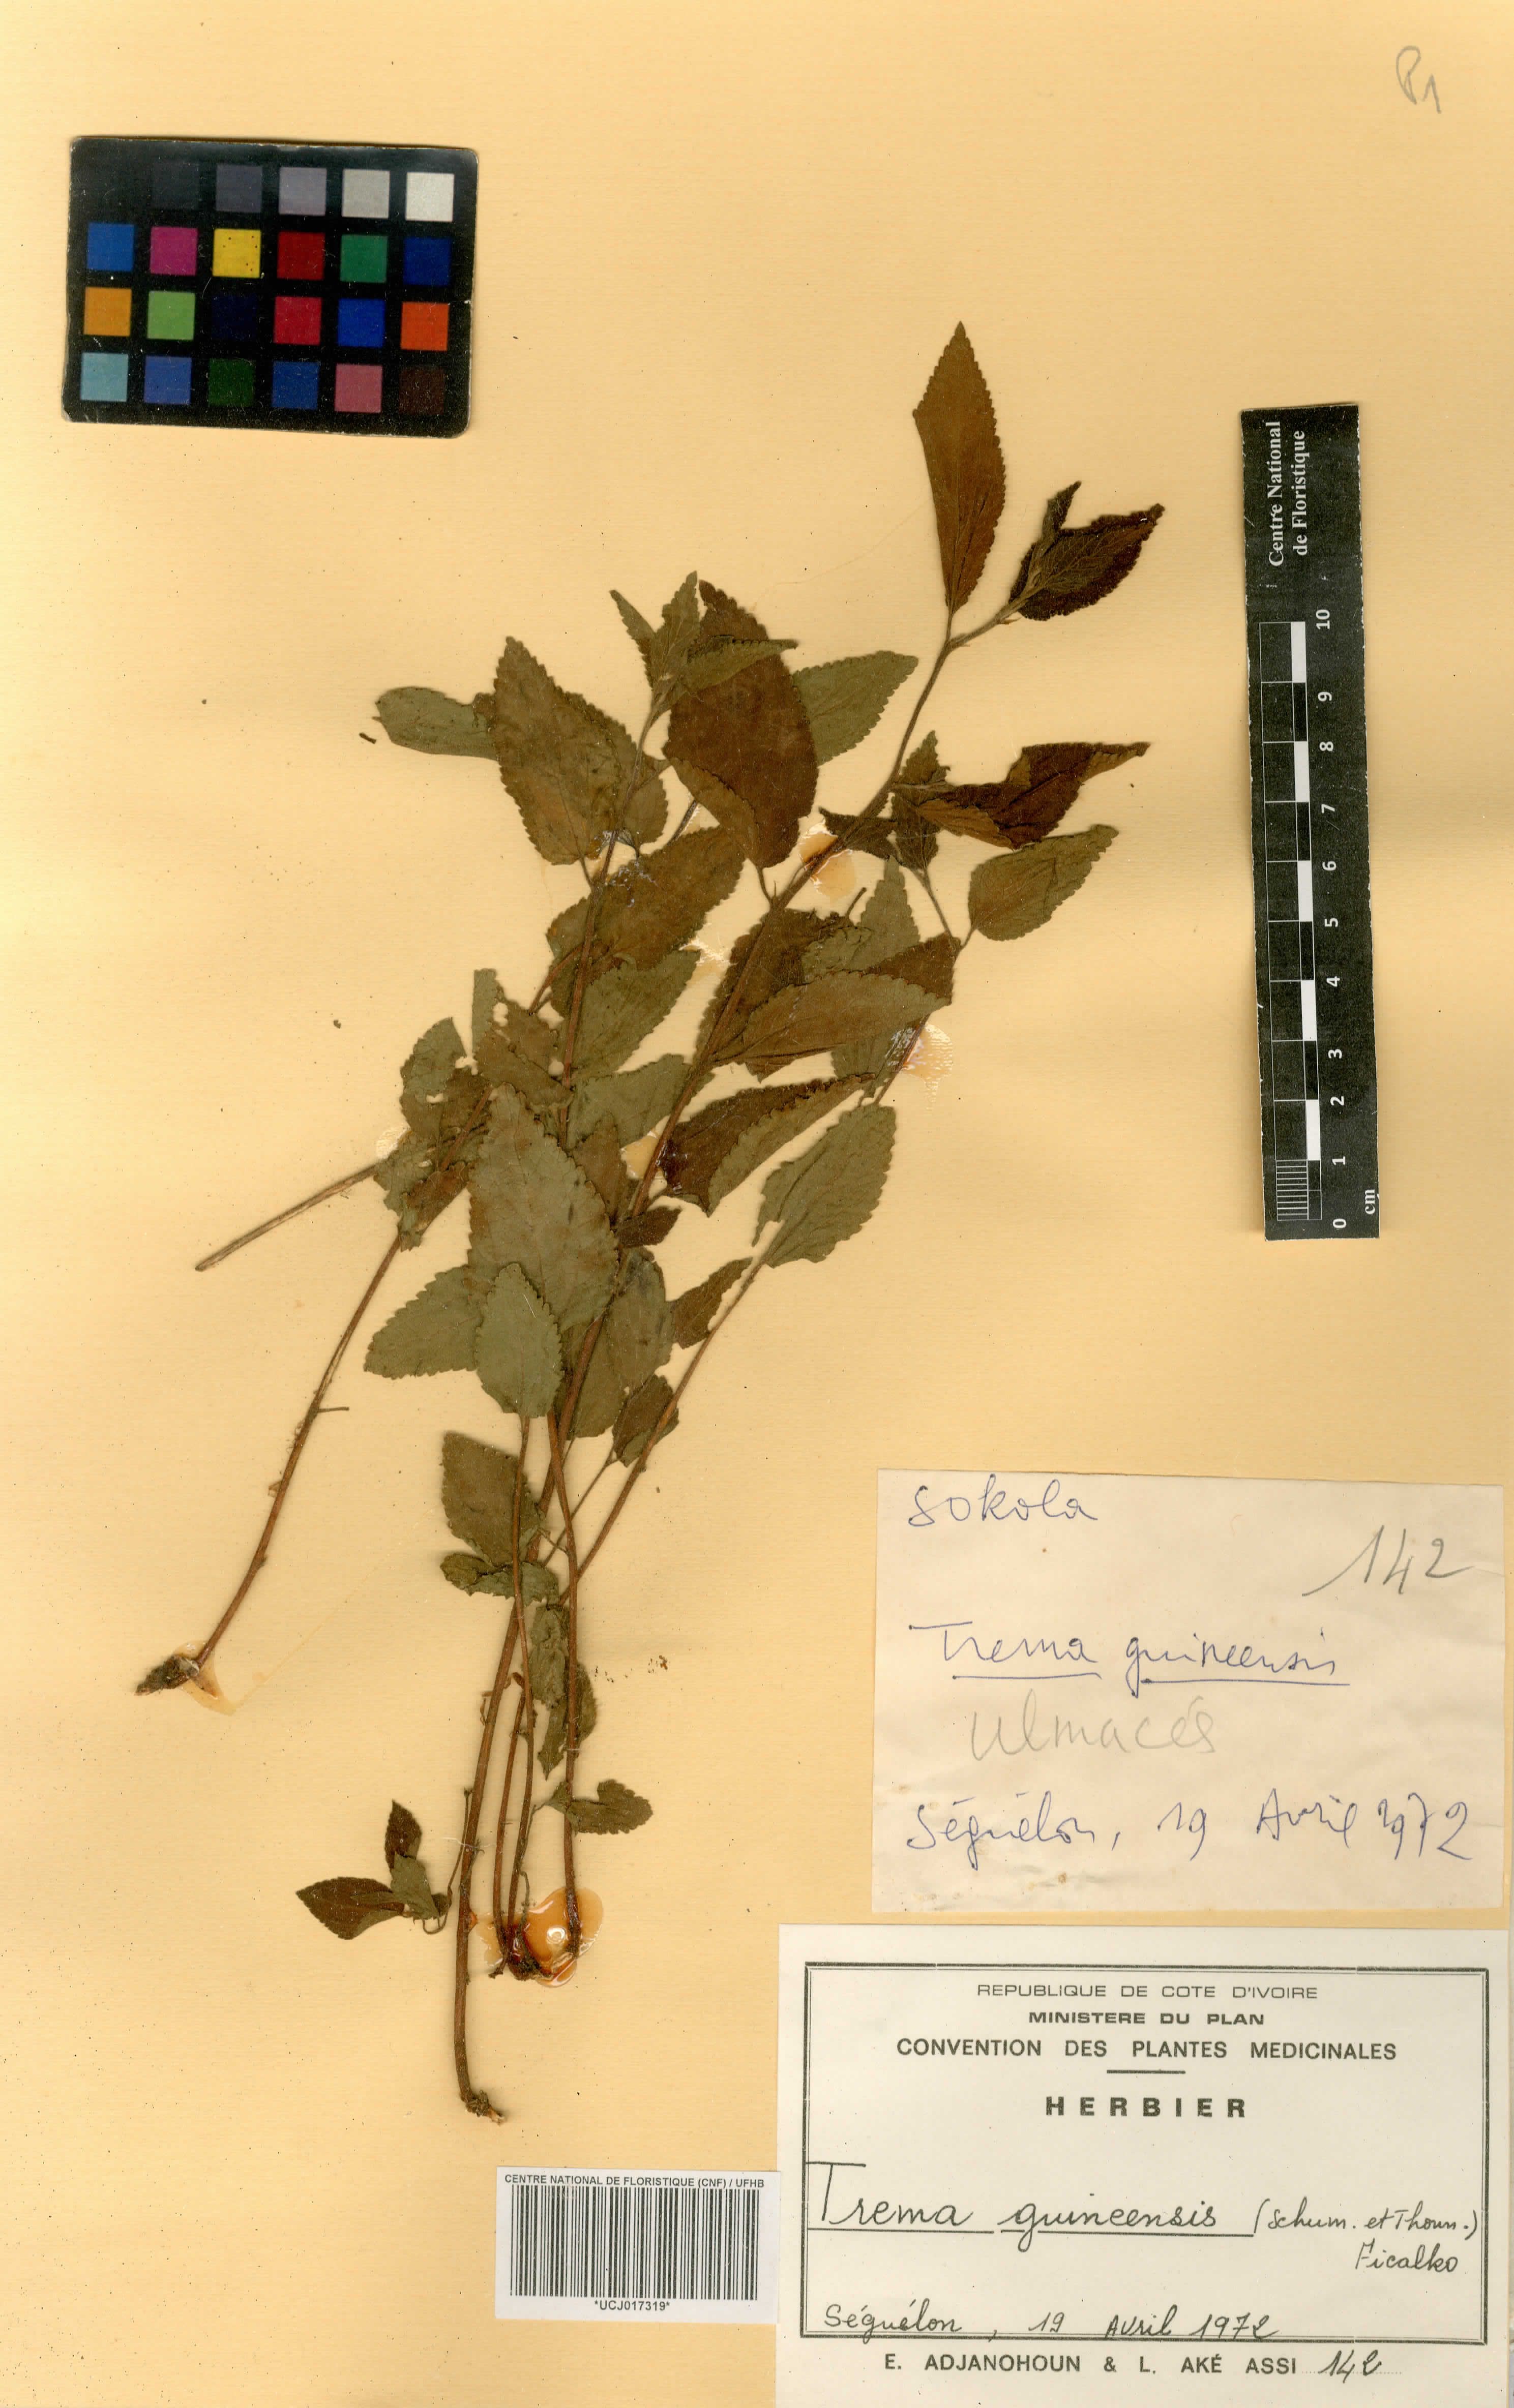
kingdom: Plantae
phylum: Tracheophyta
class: Magnoliopsida
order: Rosales
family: Cannabaceae
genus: Trema
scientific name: Trema orientale
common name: Indian charcoal tree
